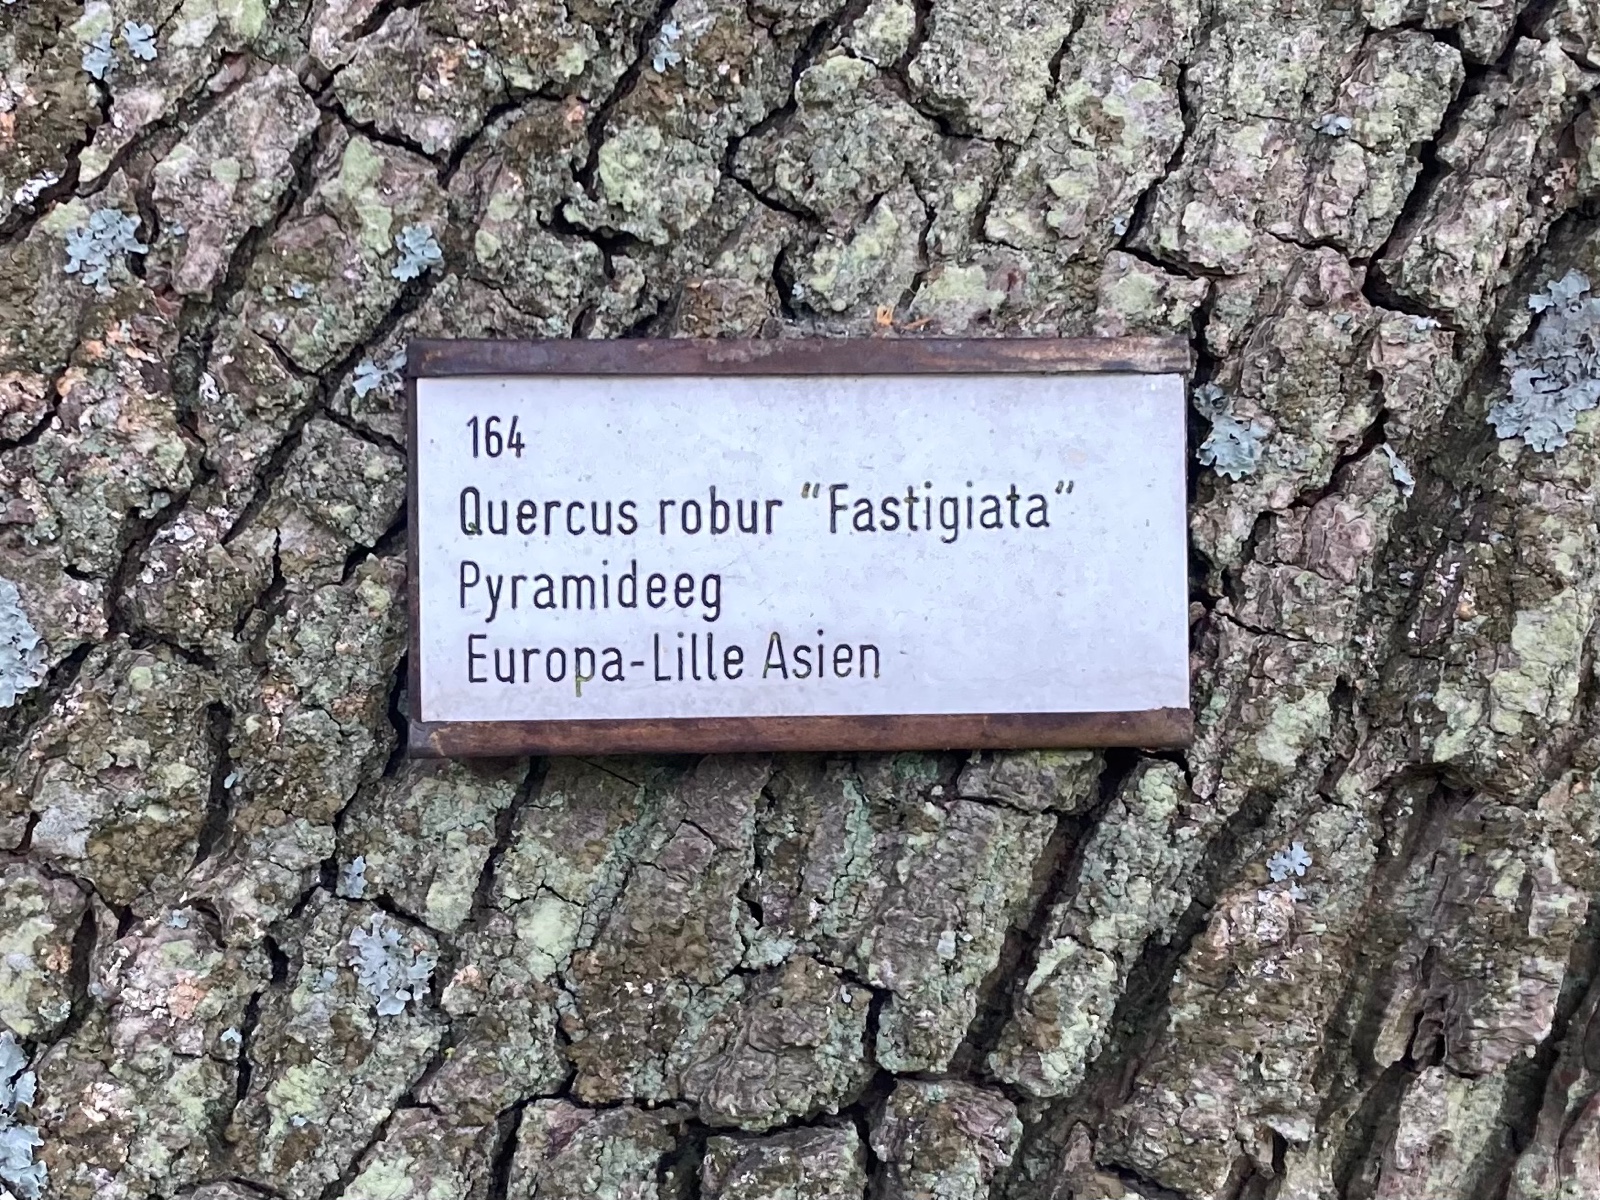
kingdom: Fungi
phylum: Basidiomycota
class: Agaricomycetes
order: Hymenochaetales
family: Hymenochaetaceae
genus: Pseudoinonotus
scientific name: Pseudoinonotus dryadeus
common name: ege-spejlporesvamp
